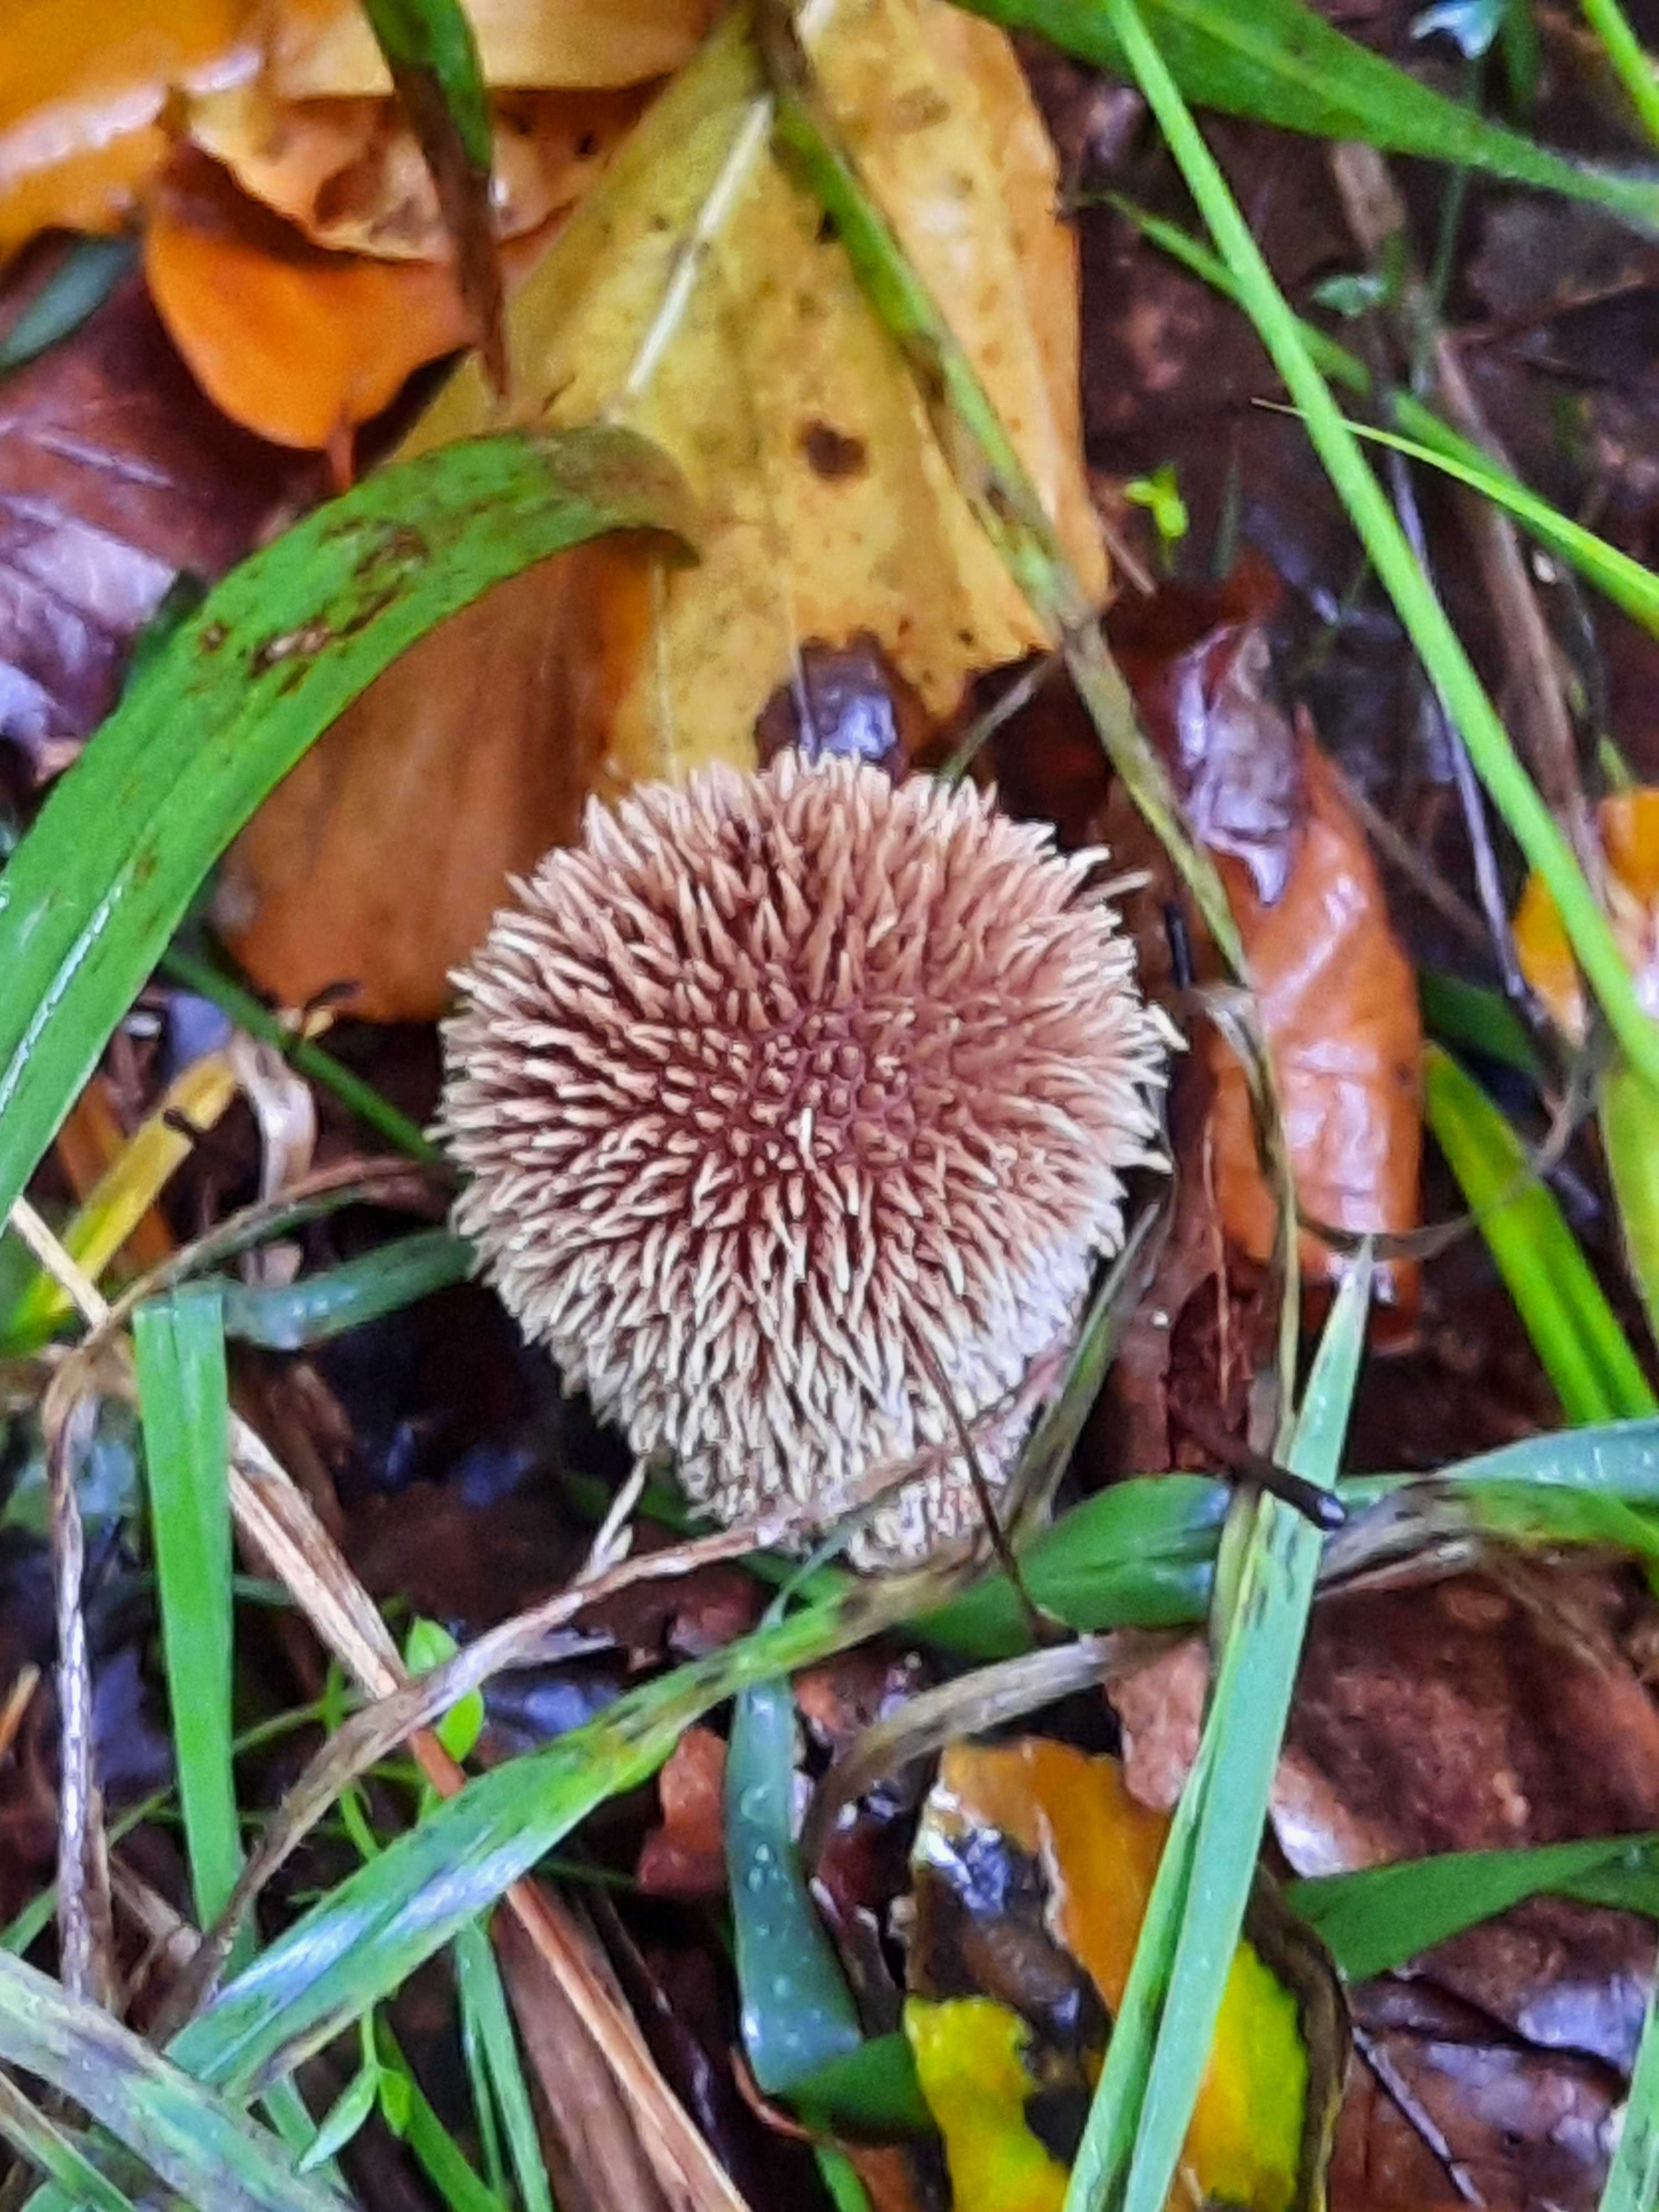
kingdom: Fungi
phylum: Basidiomycota
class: Agaricomycetes
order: Agaricales
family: Lycoperdaceae
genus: Lycoperdon
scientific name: Lycoperdon echinatum
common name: pindsvine-støvbold
